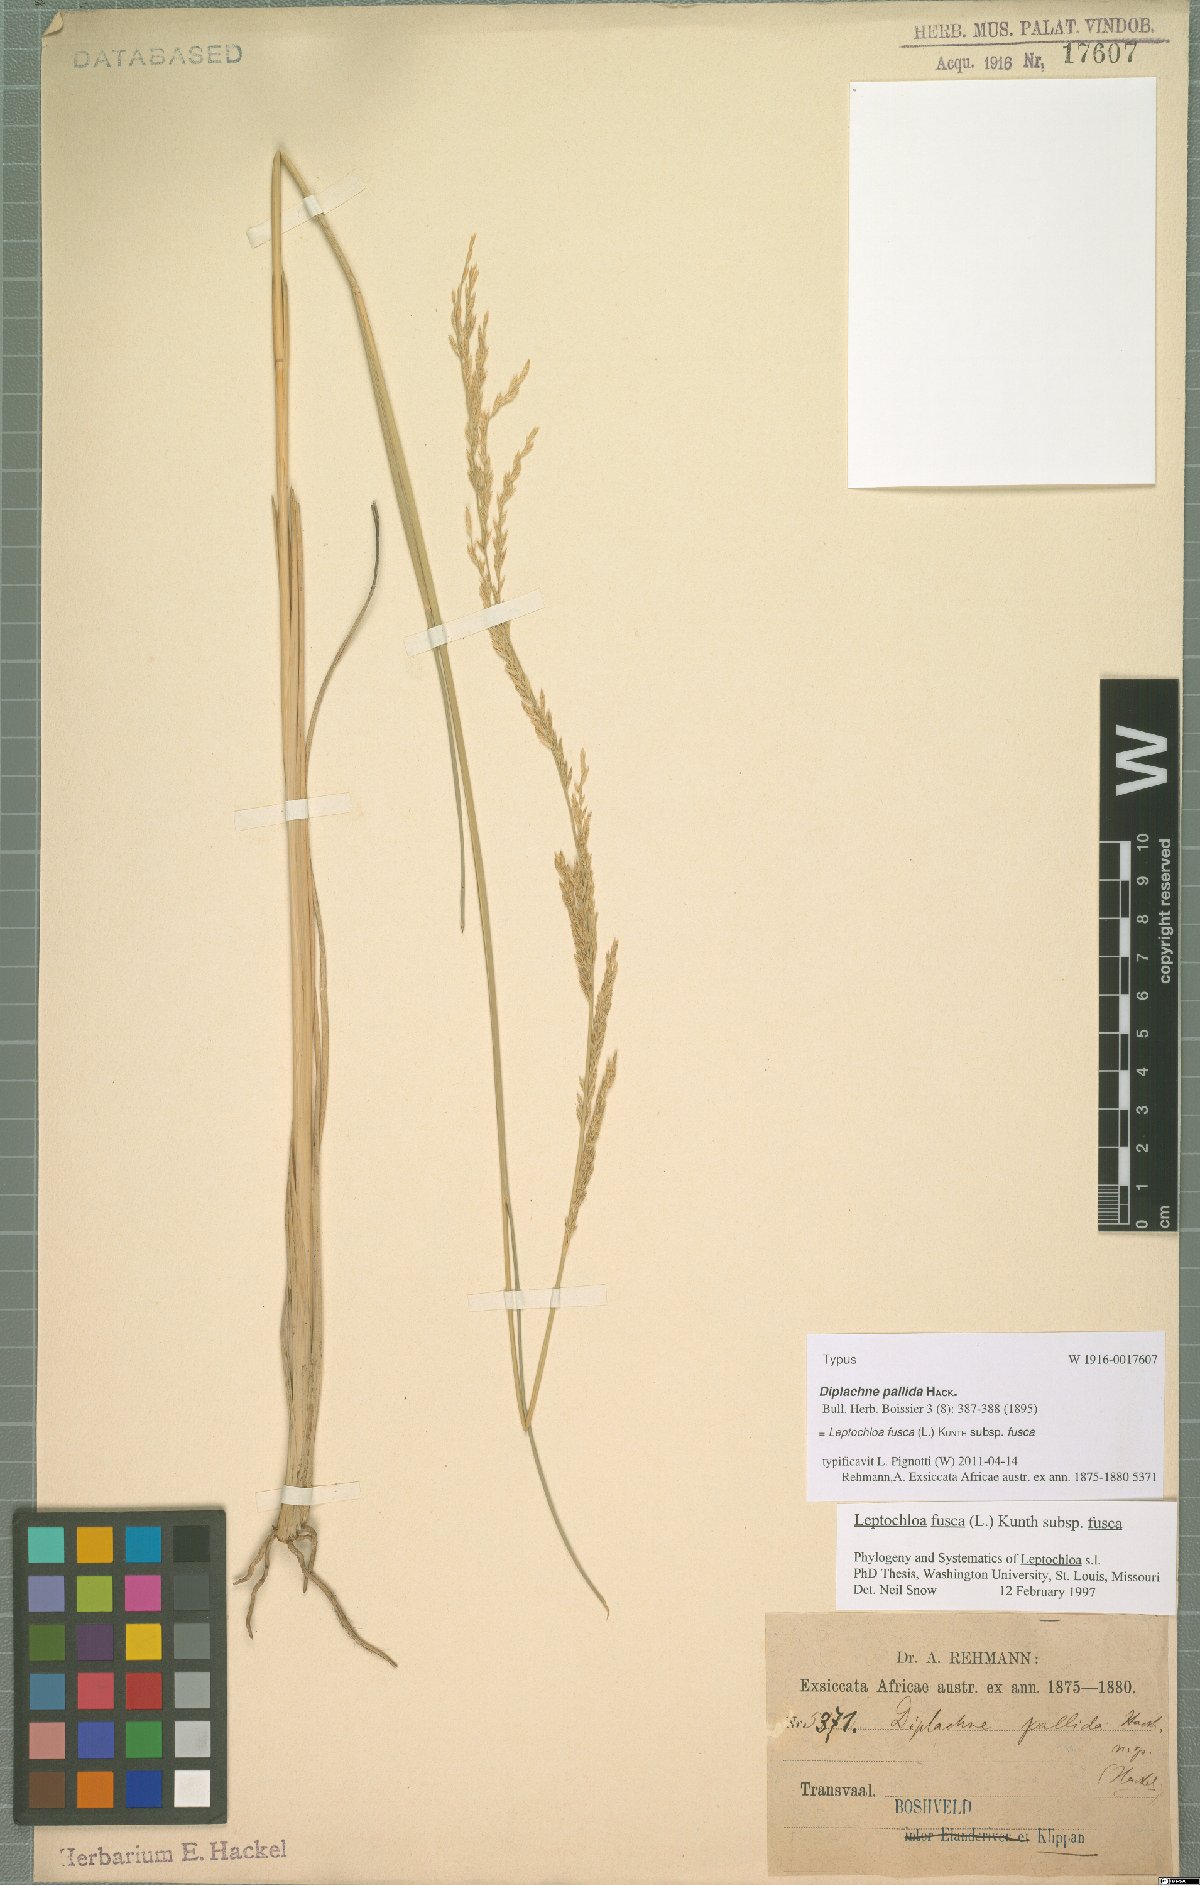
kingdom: Plantae
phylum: Tracheophyta
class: Liliopsida
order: Poales
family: Poaceae
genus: Diplachne
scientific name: Diplachne fusca
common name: Brown beetle grass
